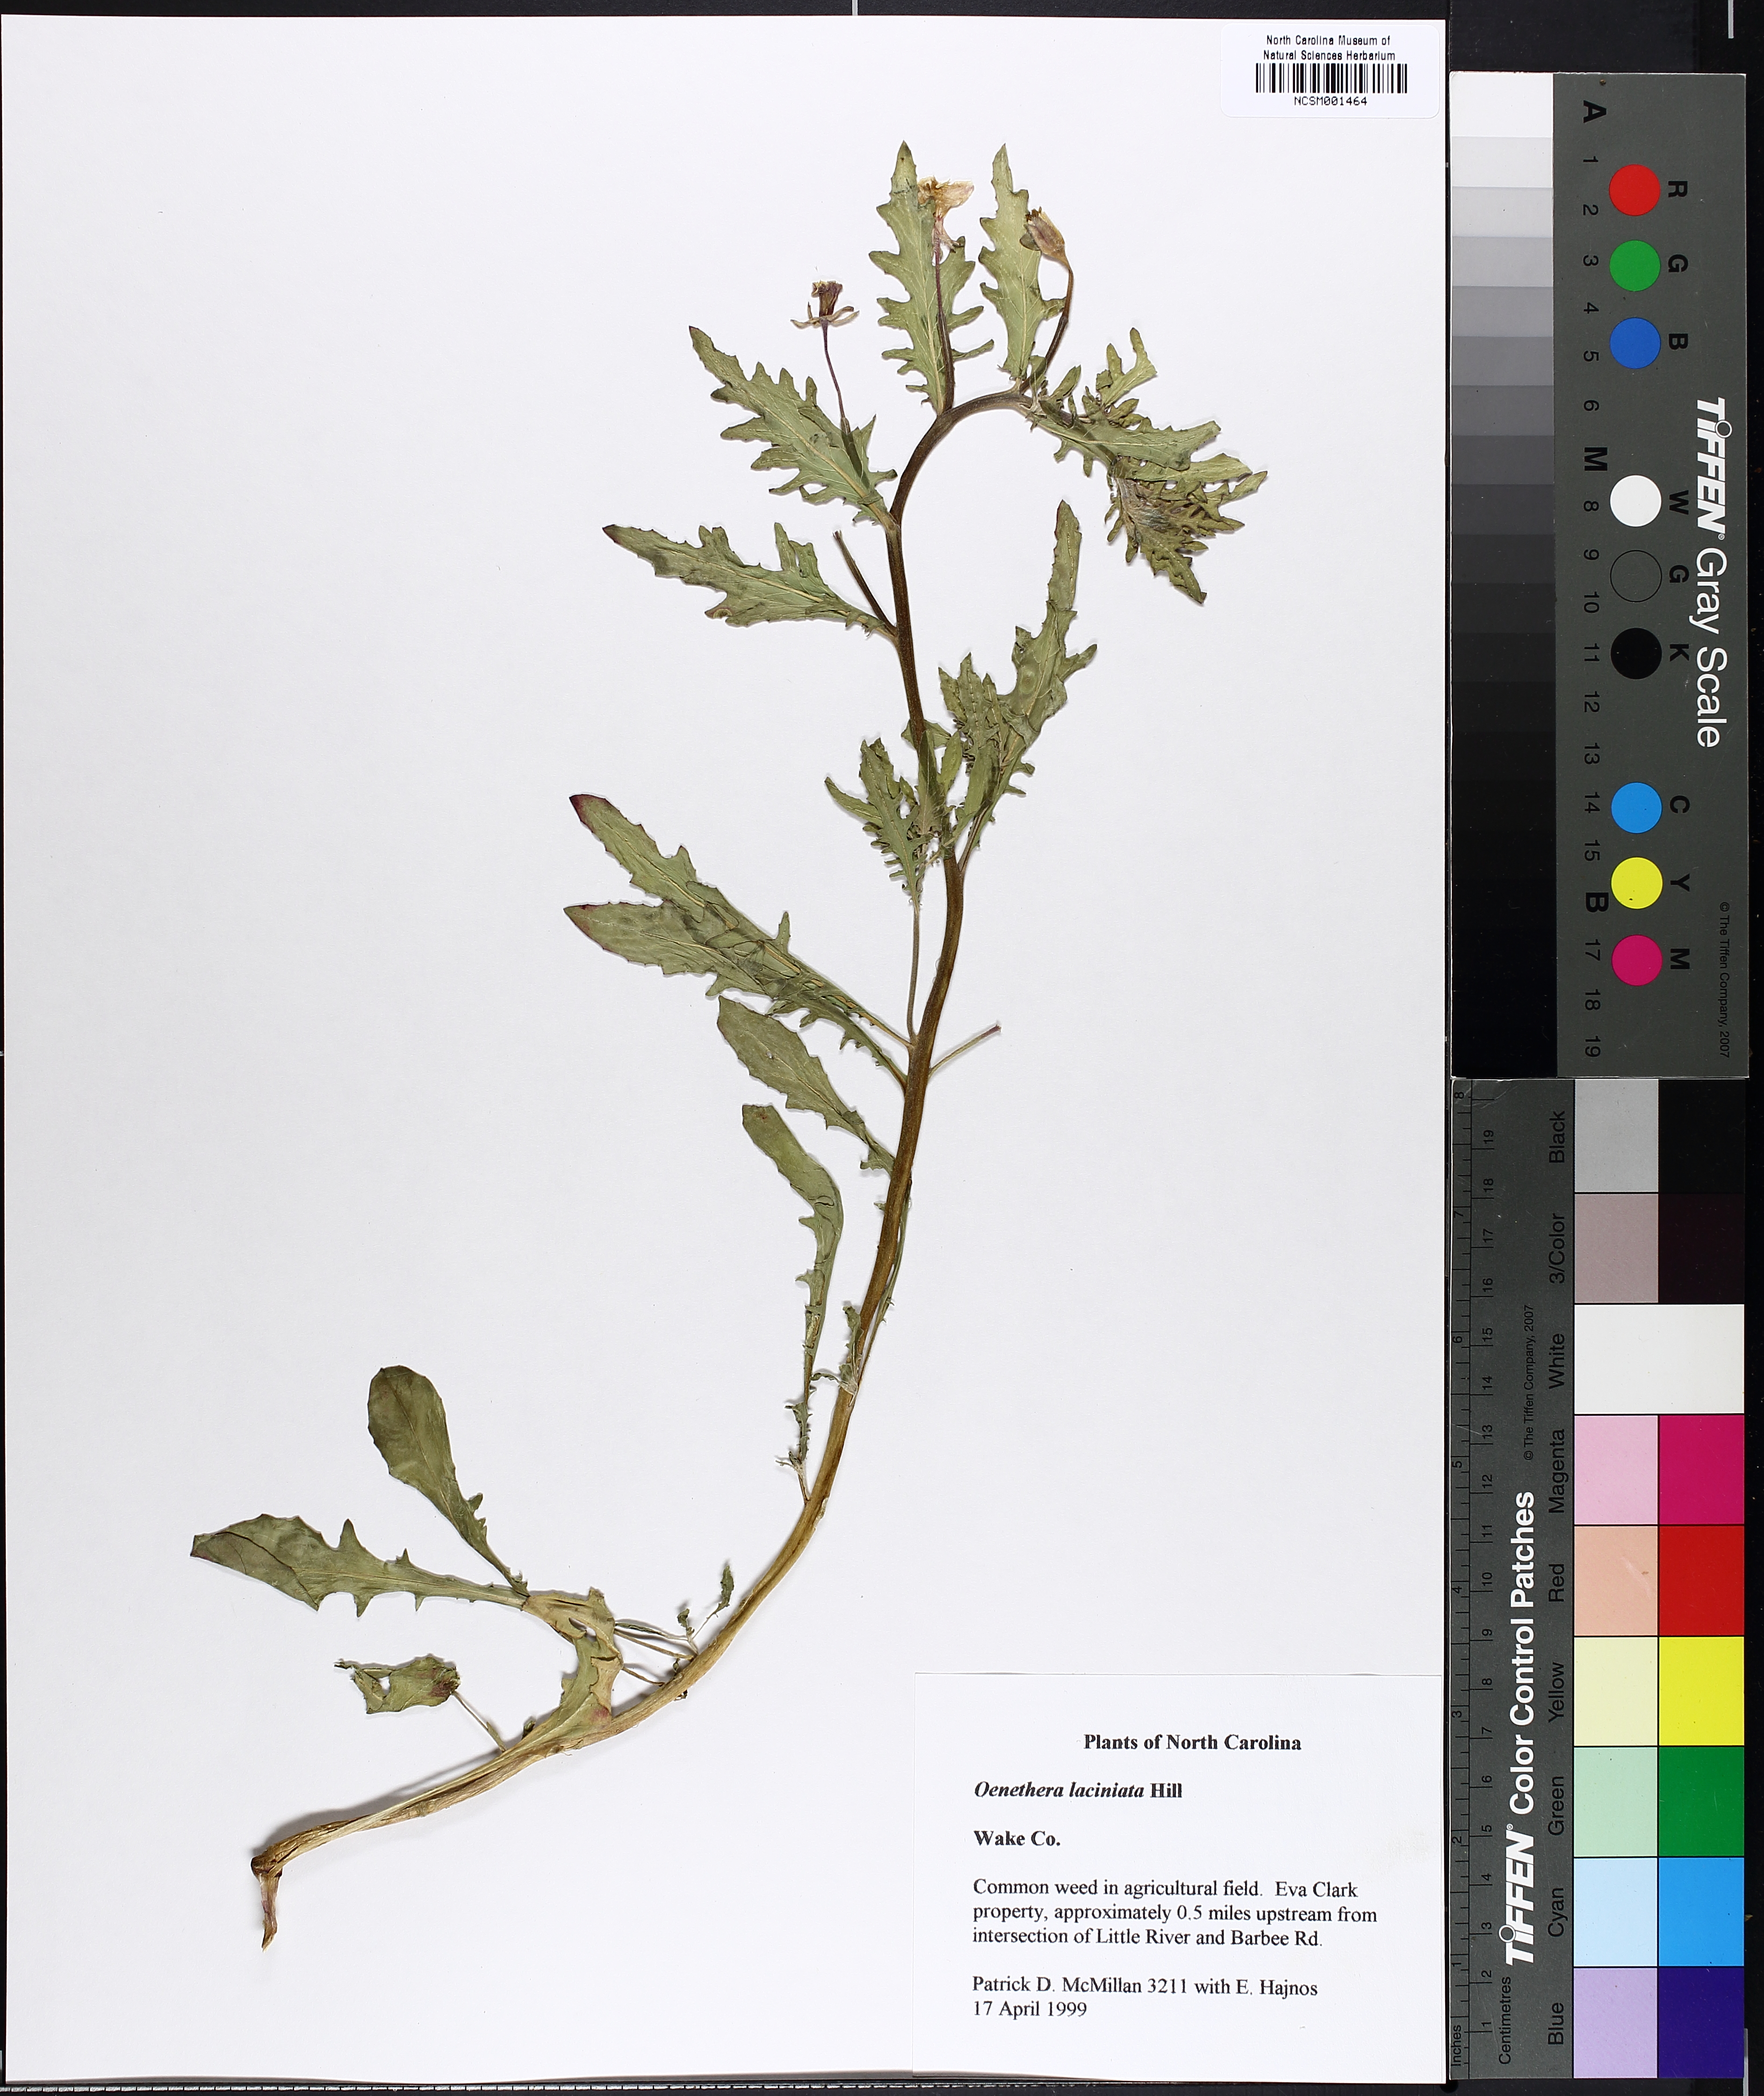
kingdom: Plantae
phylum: Tracheophyta
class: Magnoliopsida
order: Myrtales
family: Onagraceae
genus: Oenothera
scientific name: Oenothera laciniata
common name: Cut-leaved evening-primrose
